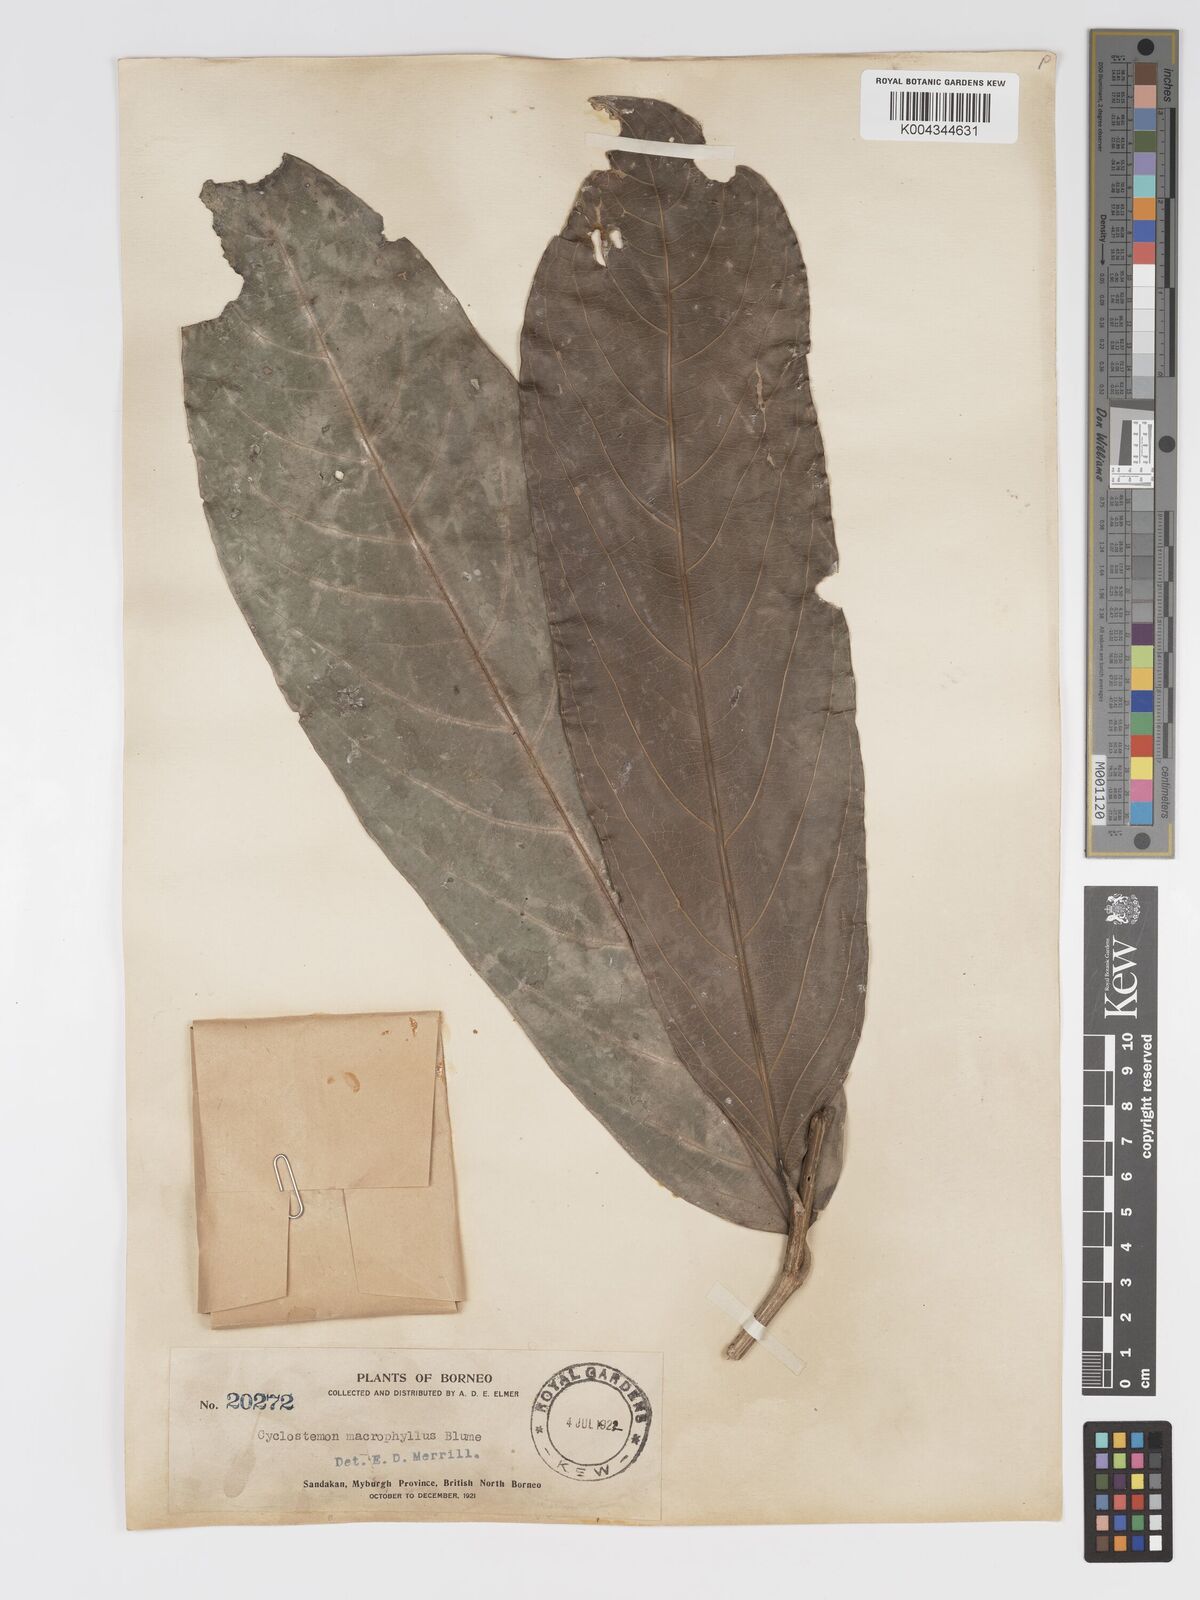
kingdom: Plantae
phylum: Tracheophyta
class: Magnoliopsida
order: Malpighiales
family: Putranjivaceae
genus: Drypetes
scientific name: Drypetes longifolia
